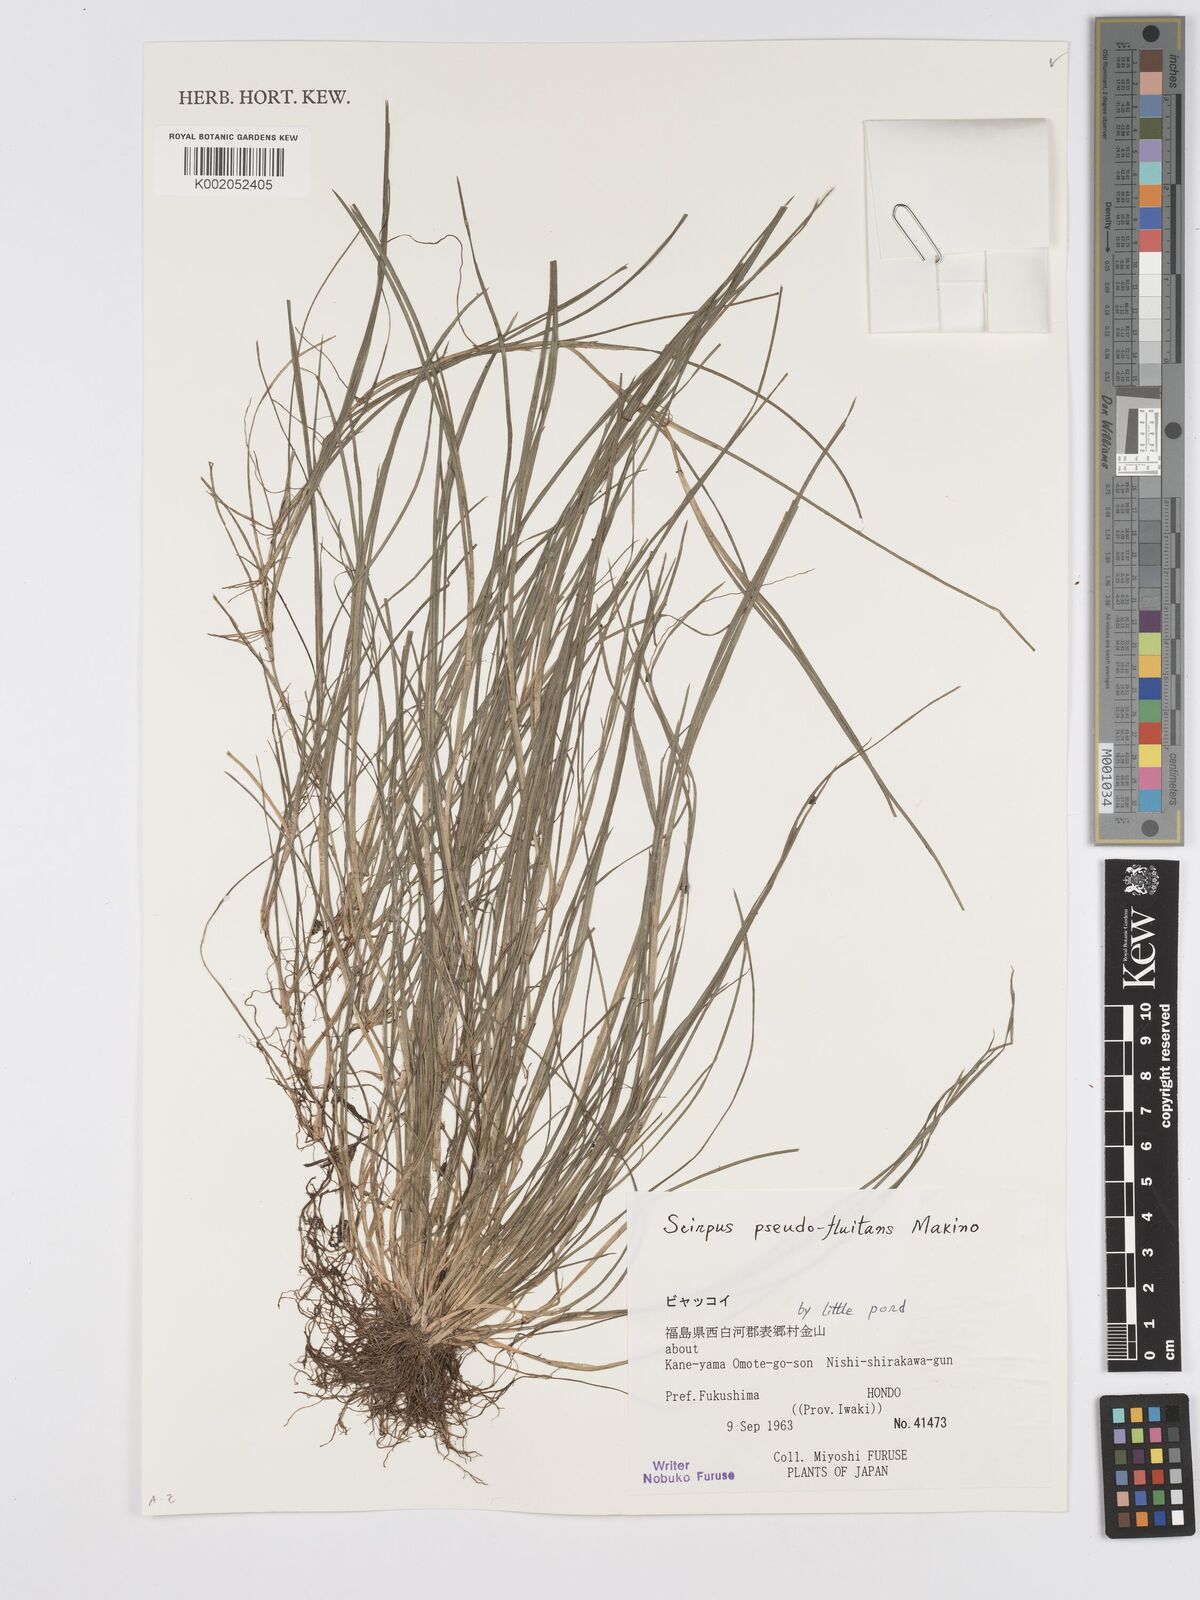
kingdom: Plantae
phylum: Tracheophyta
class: Liliopsida
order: Poales
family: Cyperaceae
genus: Isolepis
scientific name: Isolepis crassiuscula
